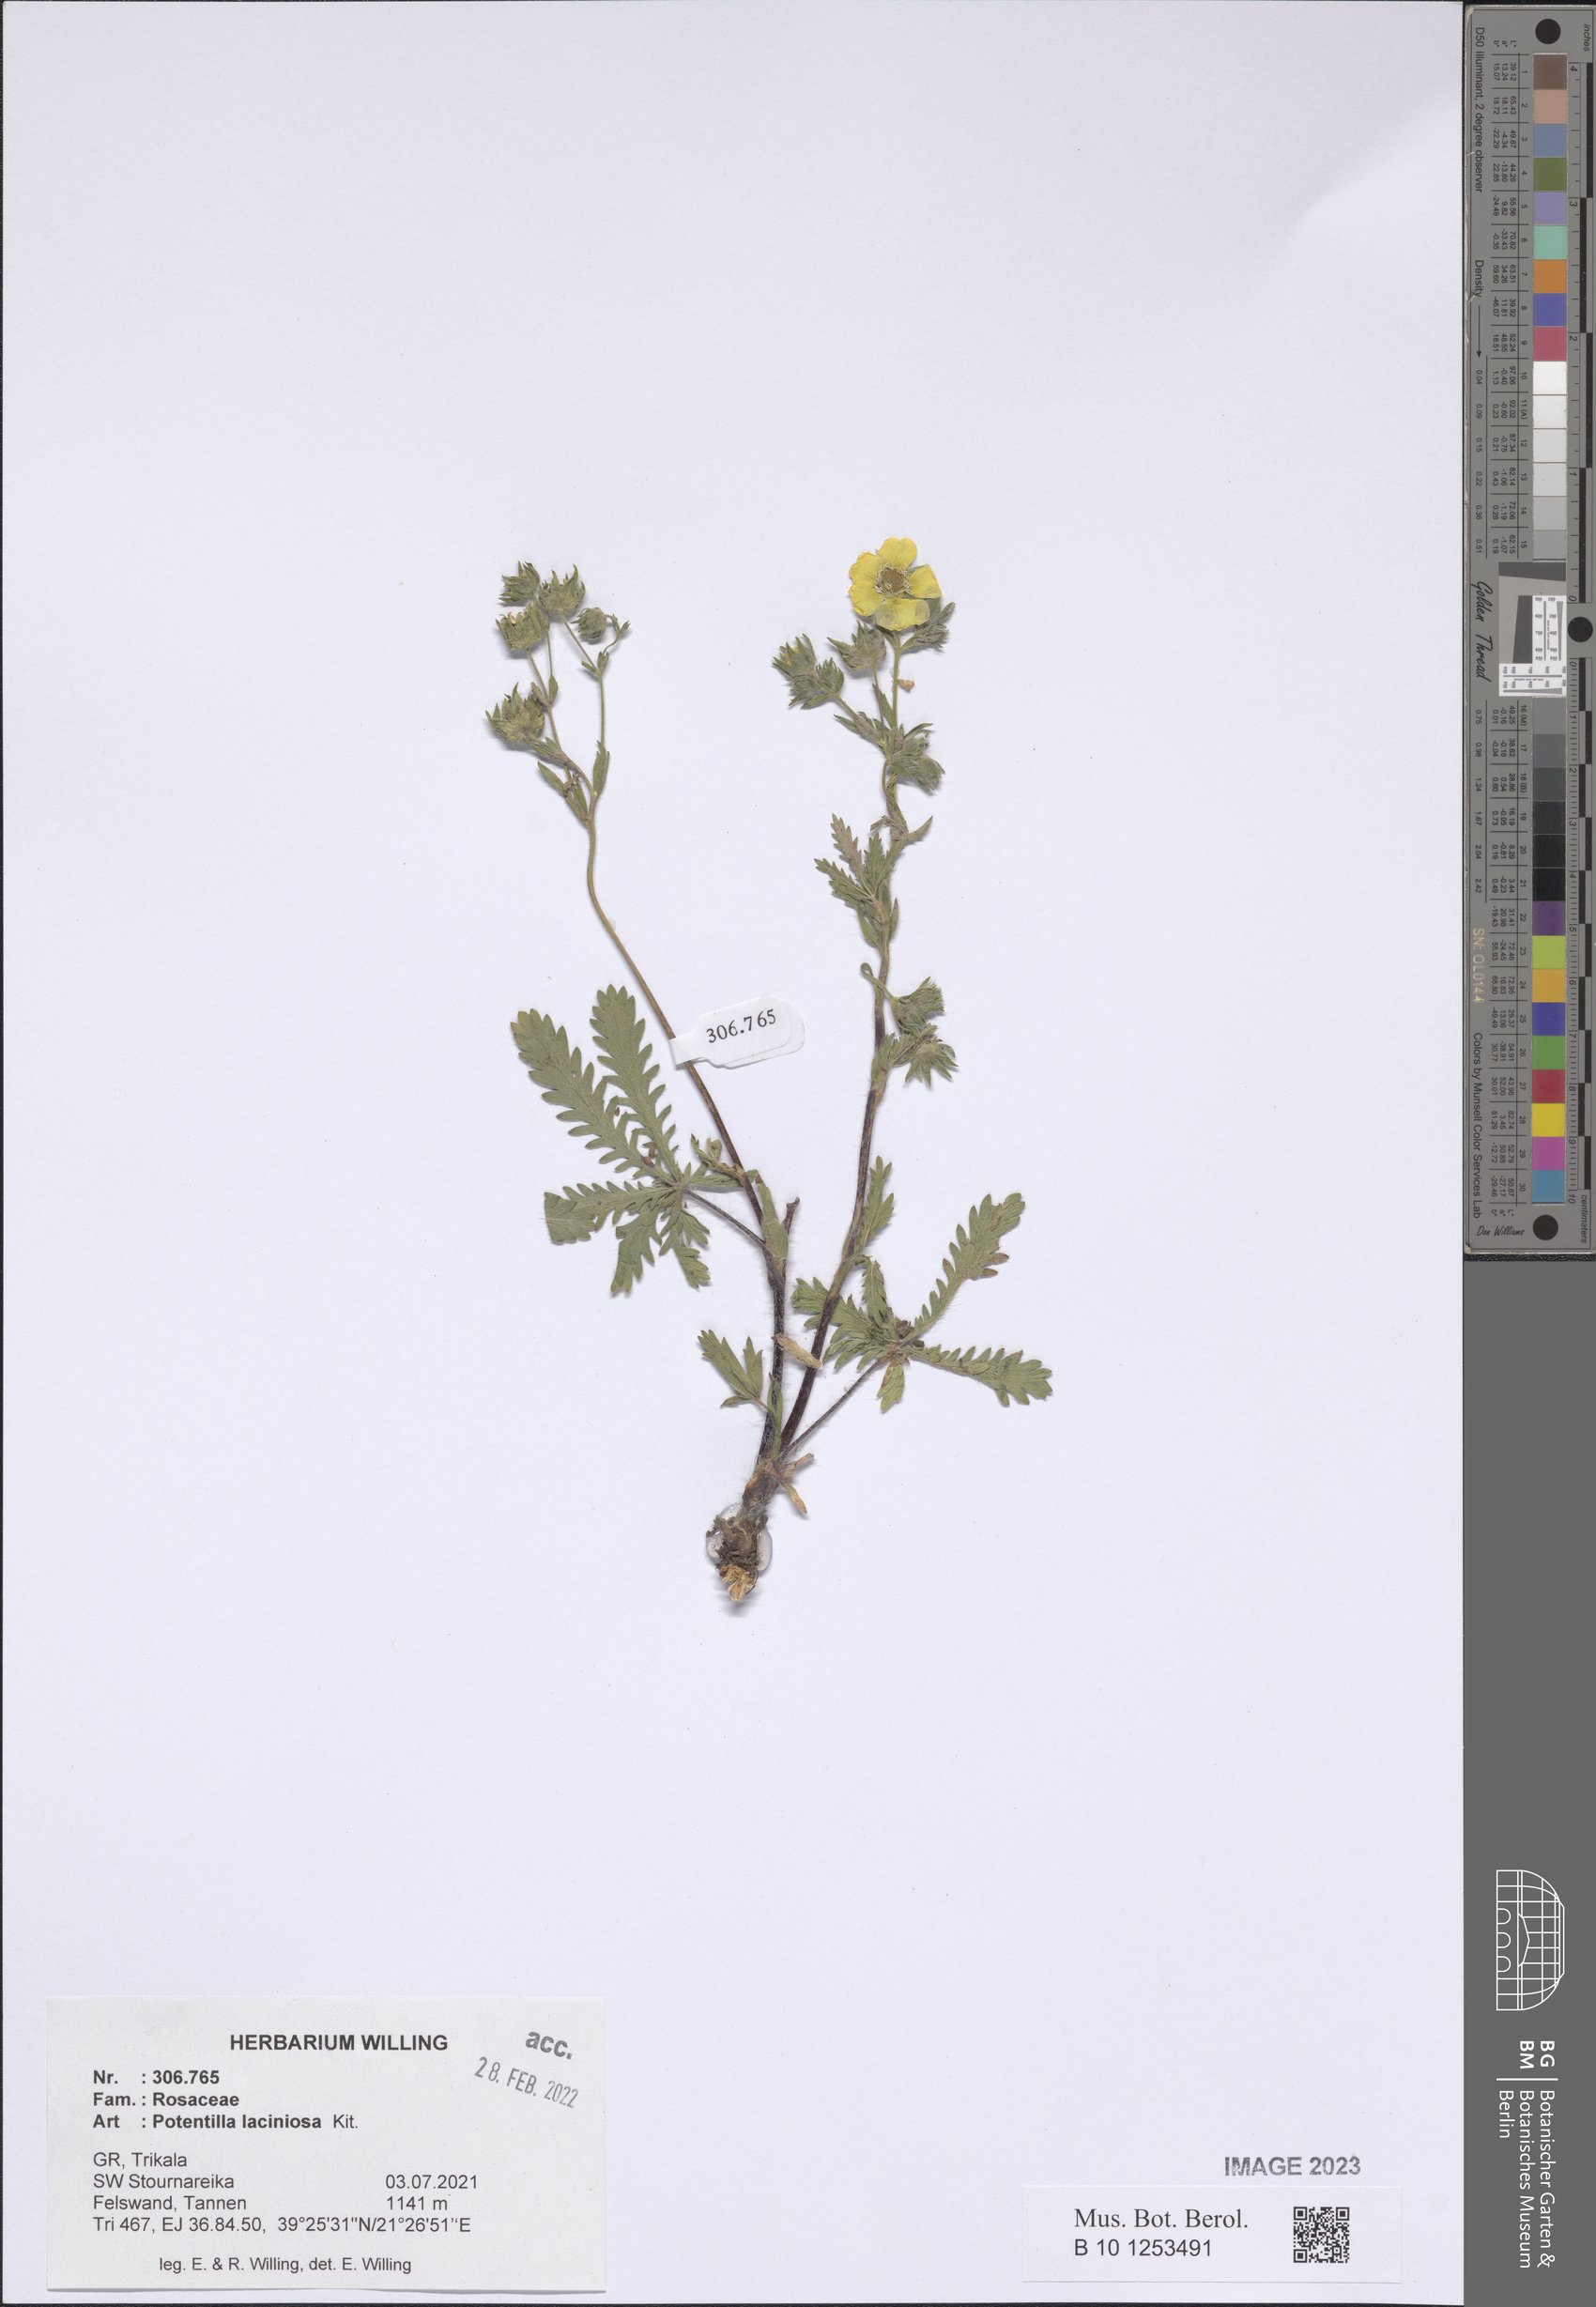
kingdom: Plantae
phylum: Tracheophyta
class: Magnoliopsida
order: Rosales
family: Rosaceae
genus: Potentilla
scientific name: Potentilla recta
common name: Sulphur cinquefoil
